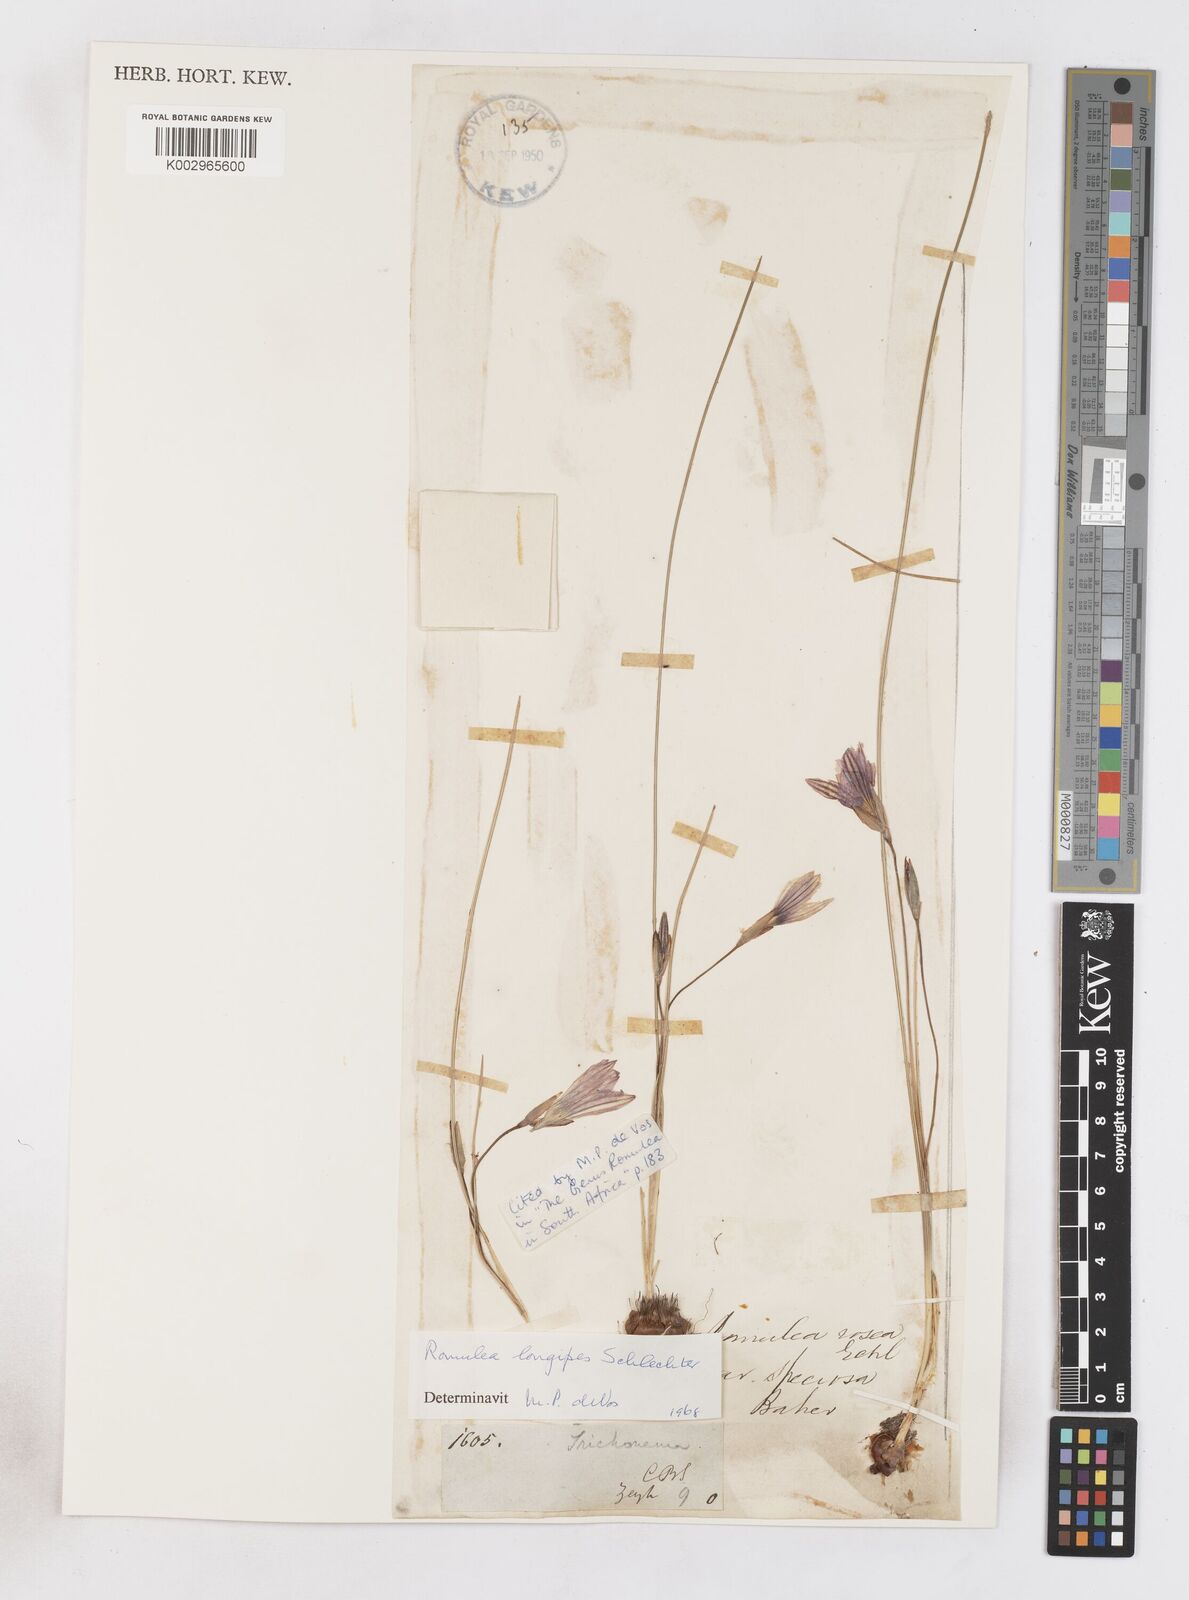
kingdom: Plantae
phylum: Tracheophyta
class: Liliopsida
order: Asparagales
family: Iridaceae
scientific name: Iridaceae
